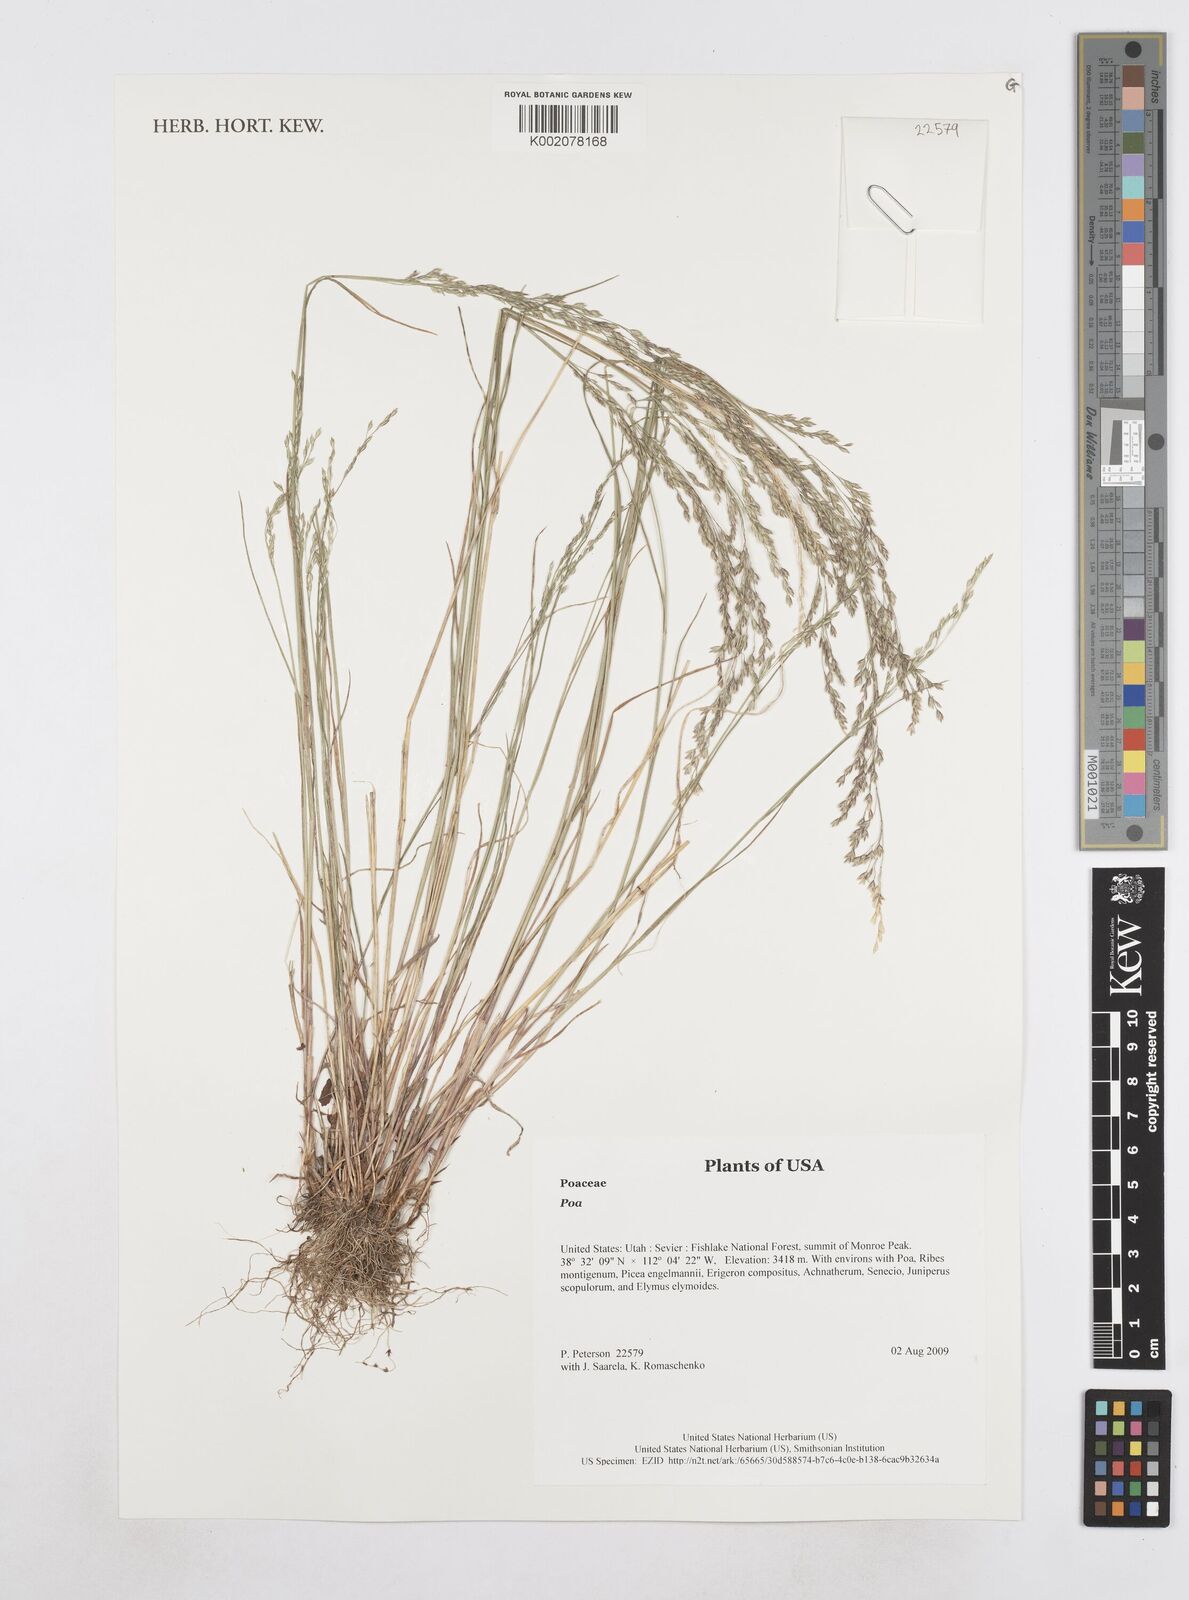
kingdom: Plantae
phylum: Tracheophyta
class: Liliopsida
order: Poales
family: Poaceae
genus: Poa
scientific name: Poa
